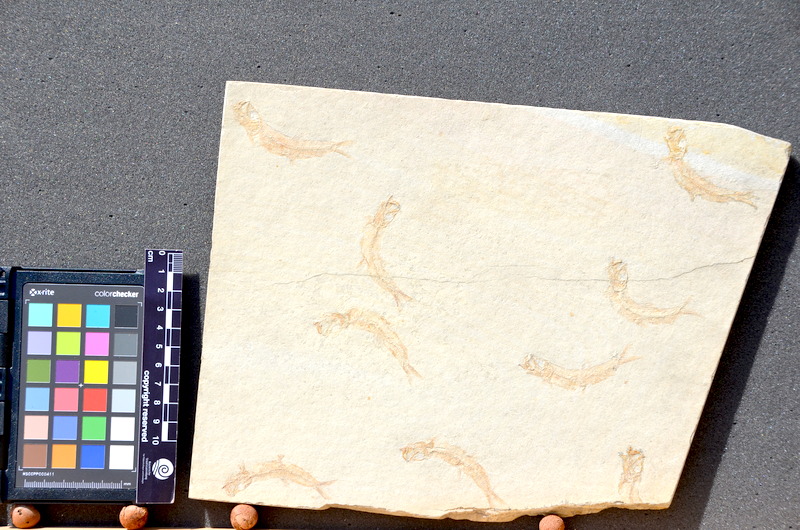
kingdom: Animalia
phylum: Chordata
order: Salmoniformes
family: Orthogonikleithridae
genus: Leptolepides
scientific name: Leptolepides sprattiformis
